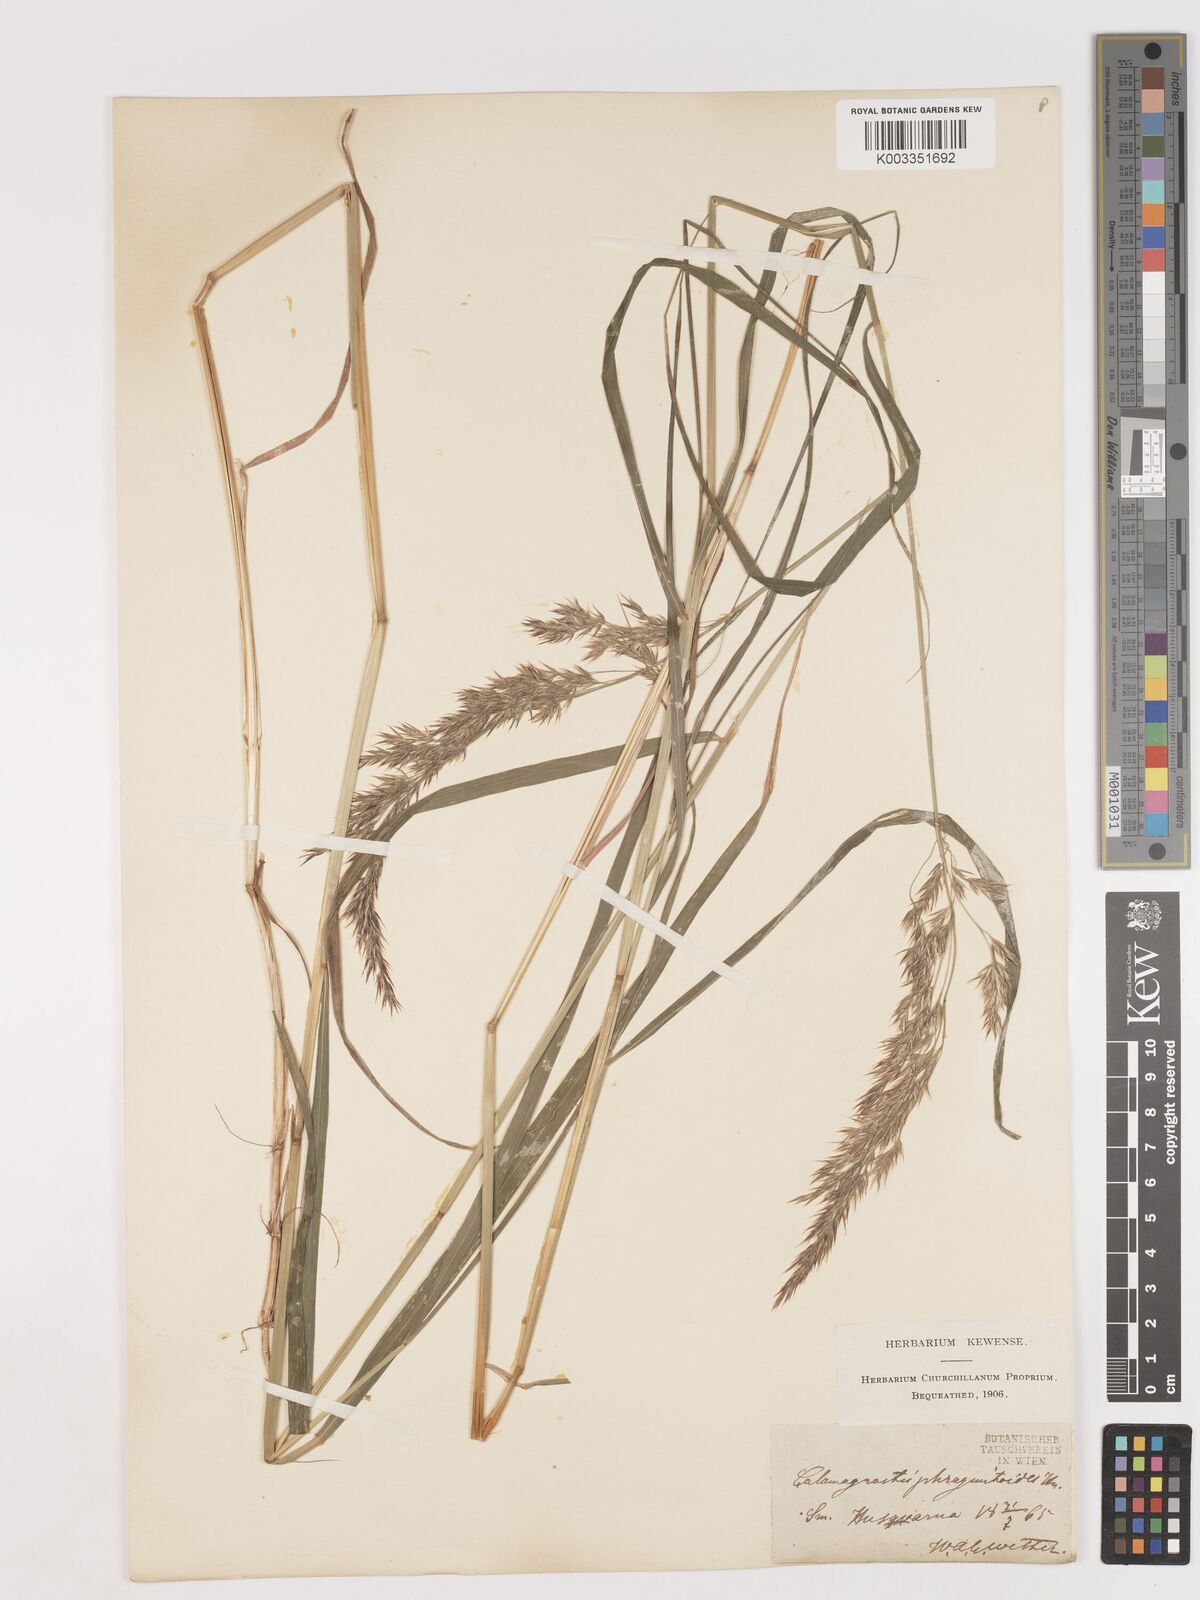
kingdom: Plantae
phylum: Tracheophyta
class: Liliopsida
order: Poales
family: Poaceae
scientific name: Poaceae
